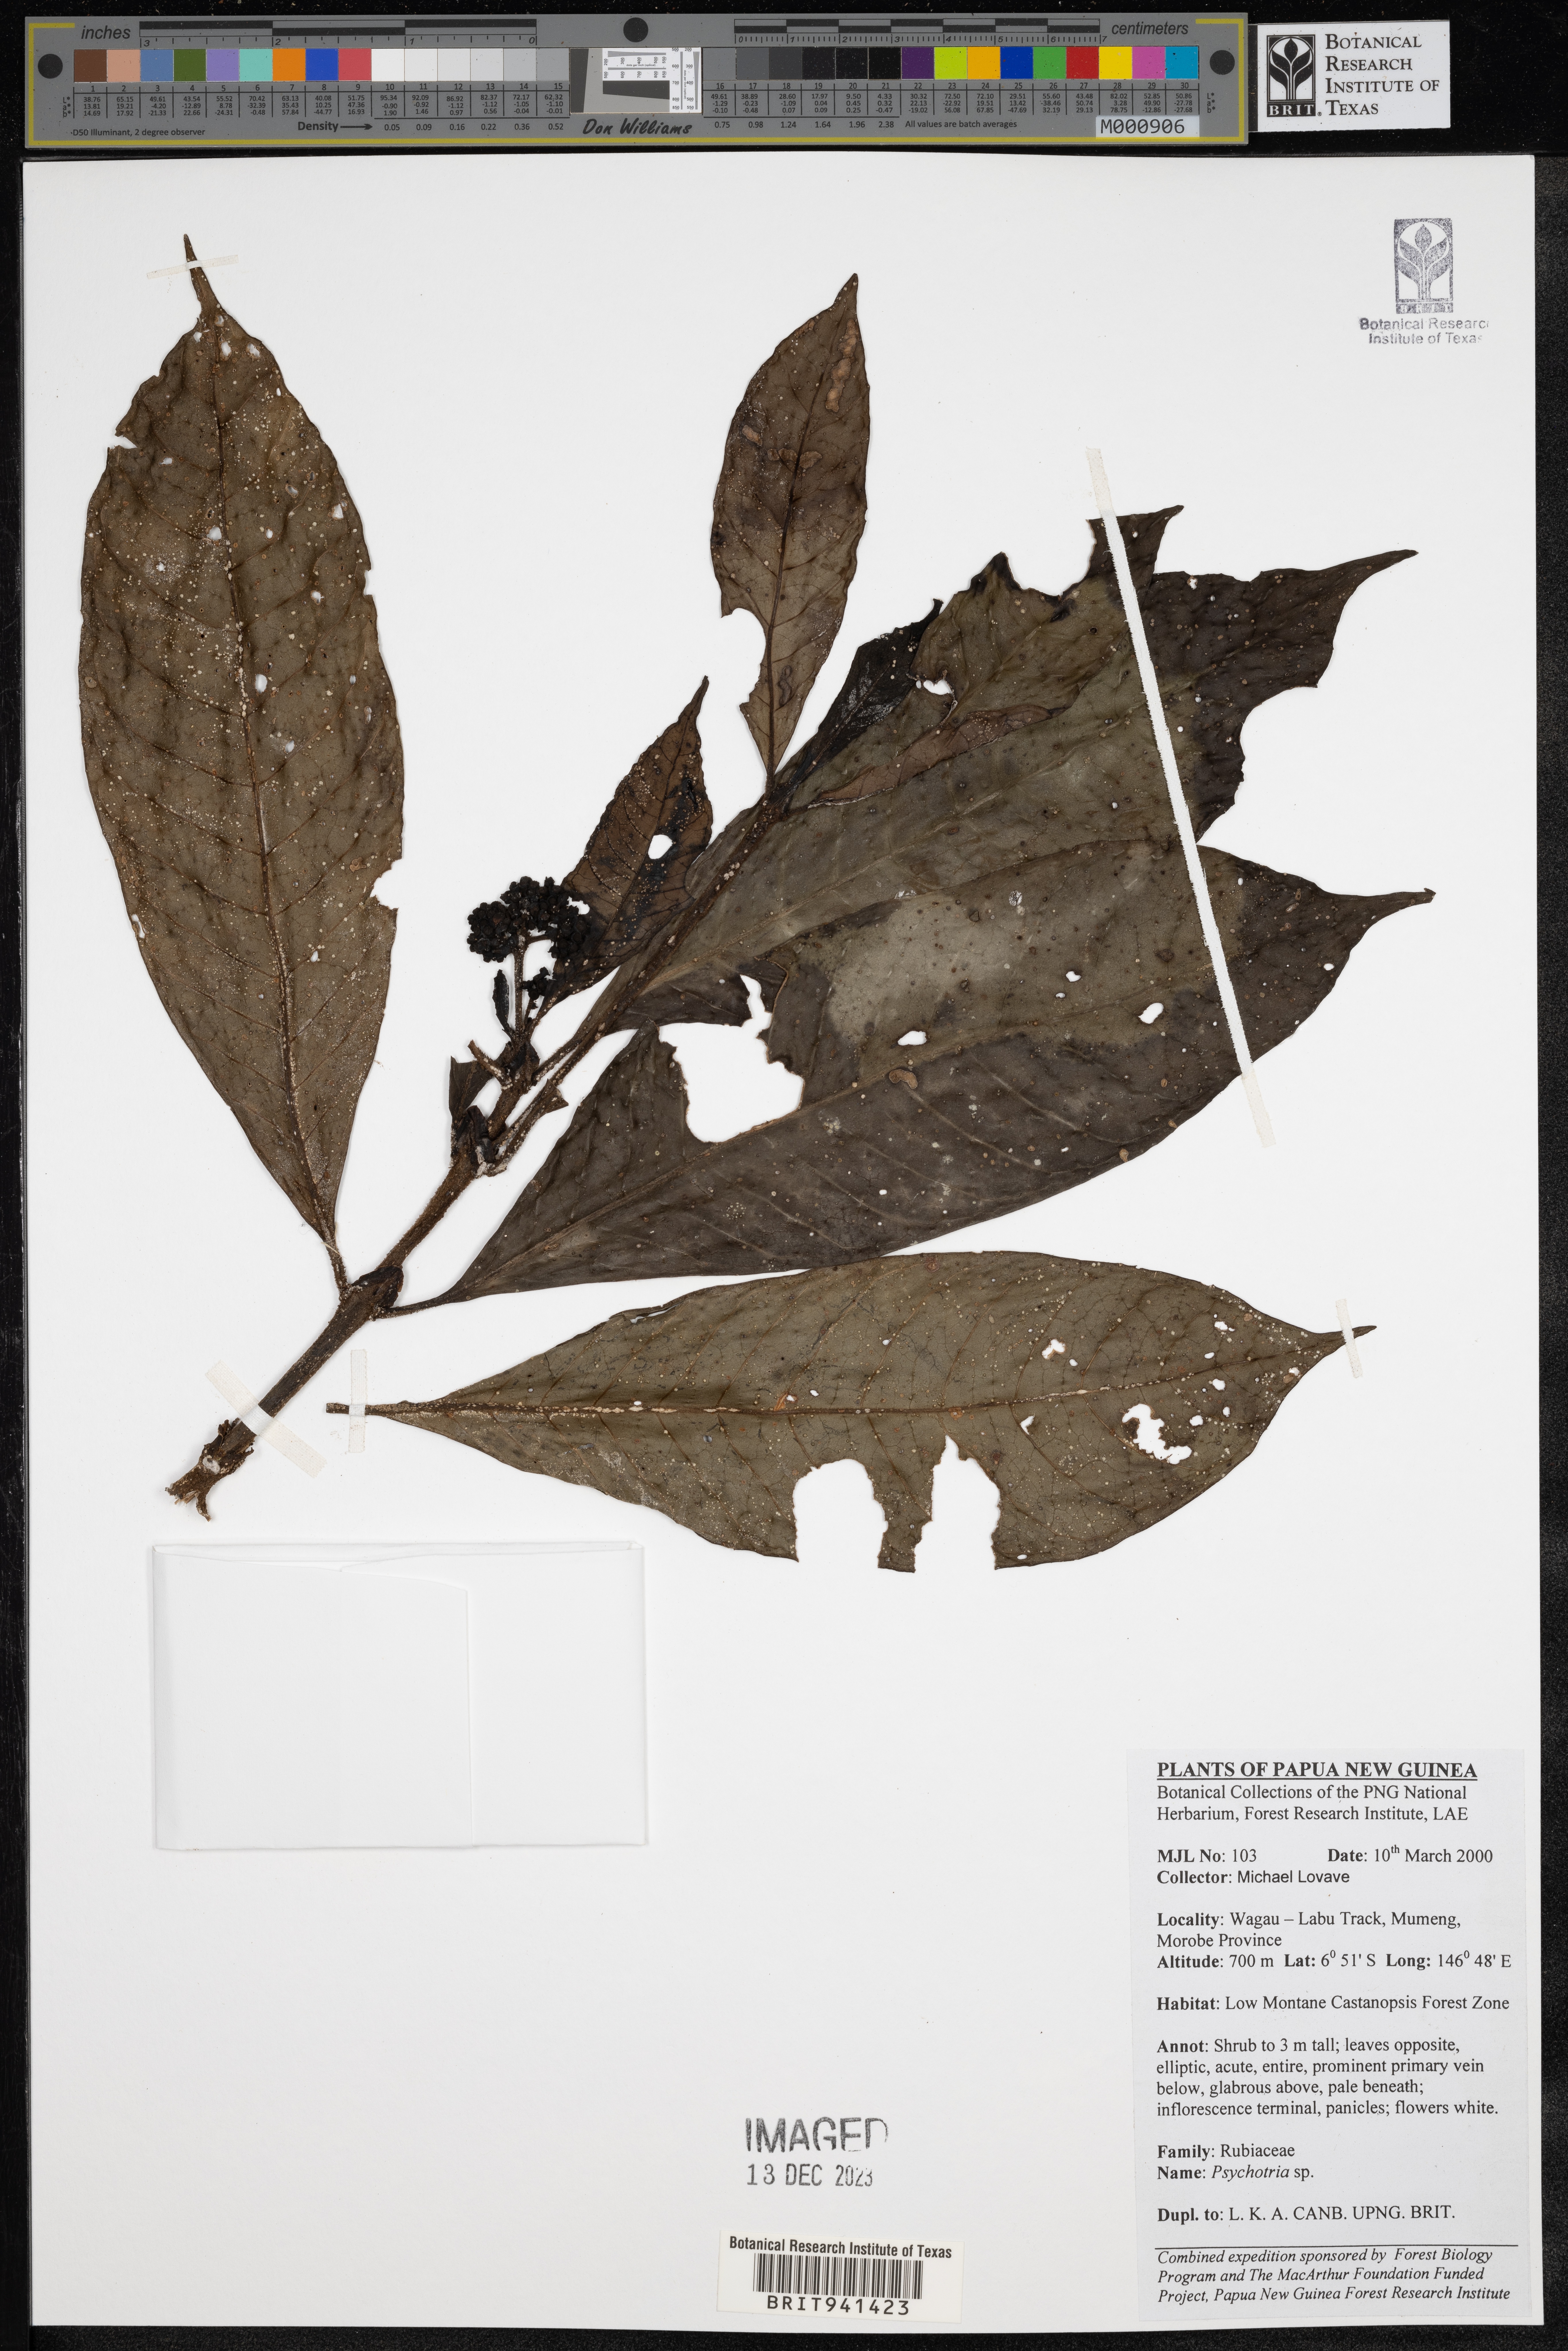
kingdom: Plantae
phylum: Tracheophyta
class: Magnoliopsida
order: Gentianales
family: Rubiaceae
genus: Psychotria
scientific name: Psychotria
